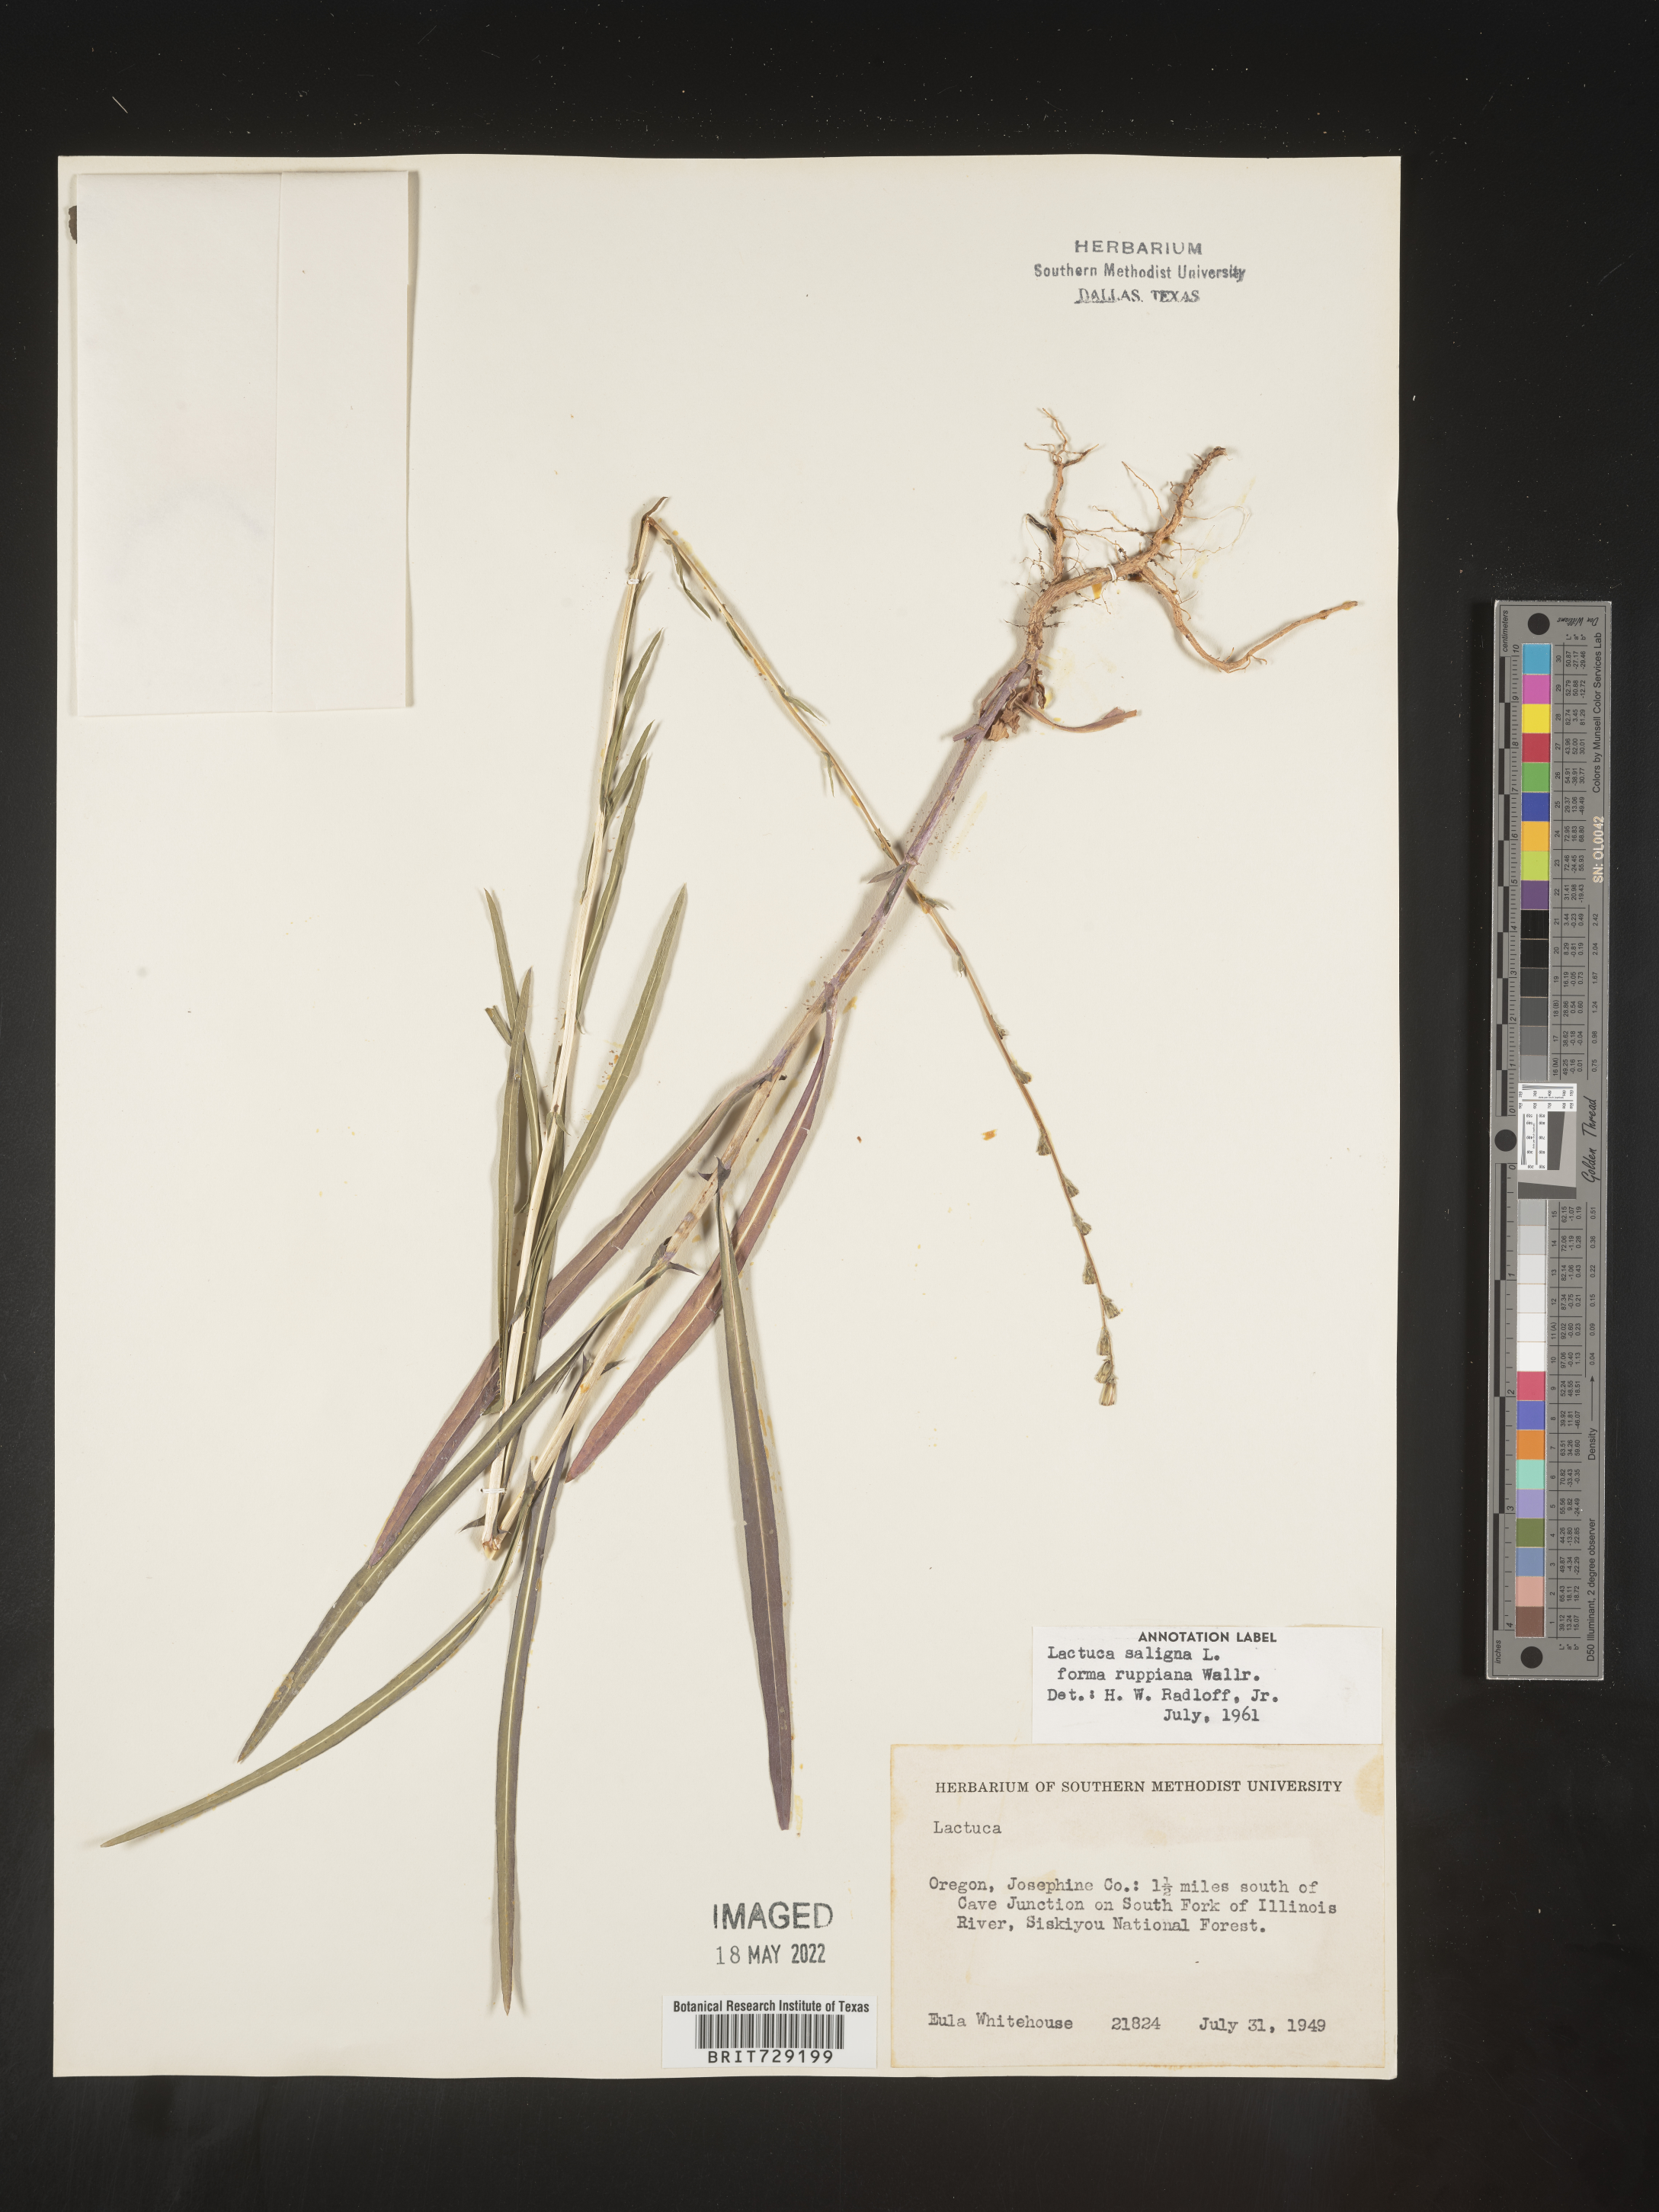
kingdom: Plantae
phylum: Tracheophyta
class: Magnoliopsida
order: Asterales
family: Asteraceae
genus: Lactuca
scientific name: Lactuca saligna
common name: Wild lettuce
